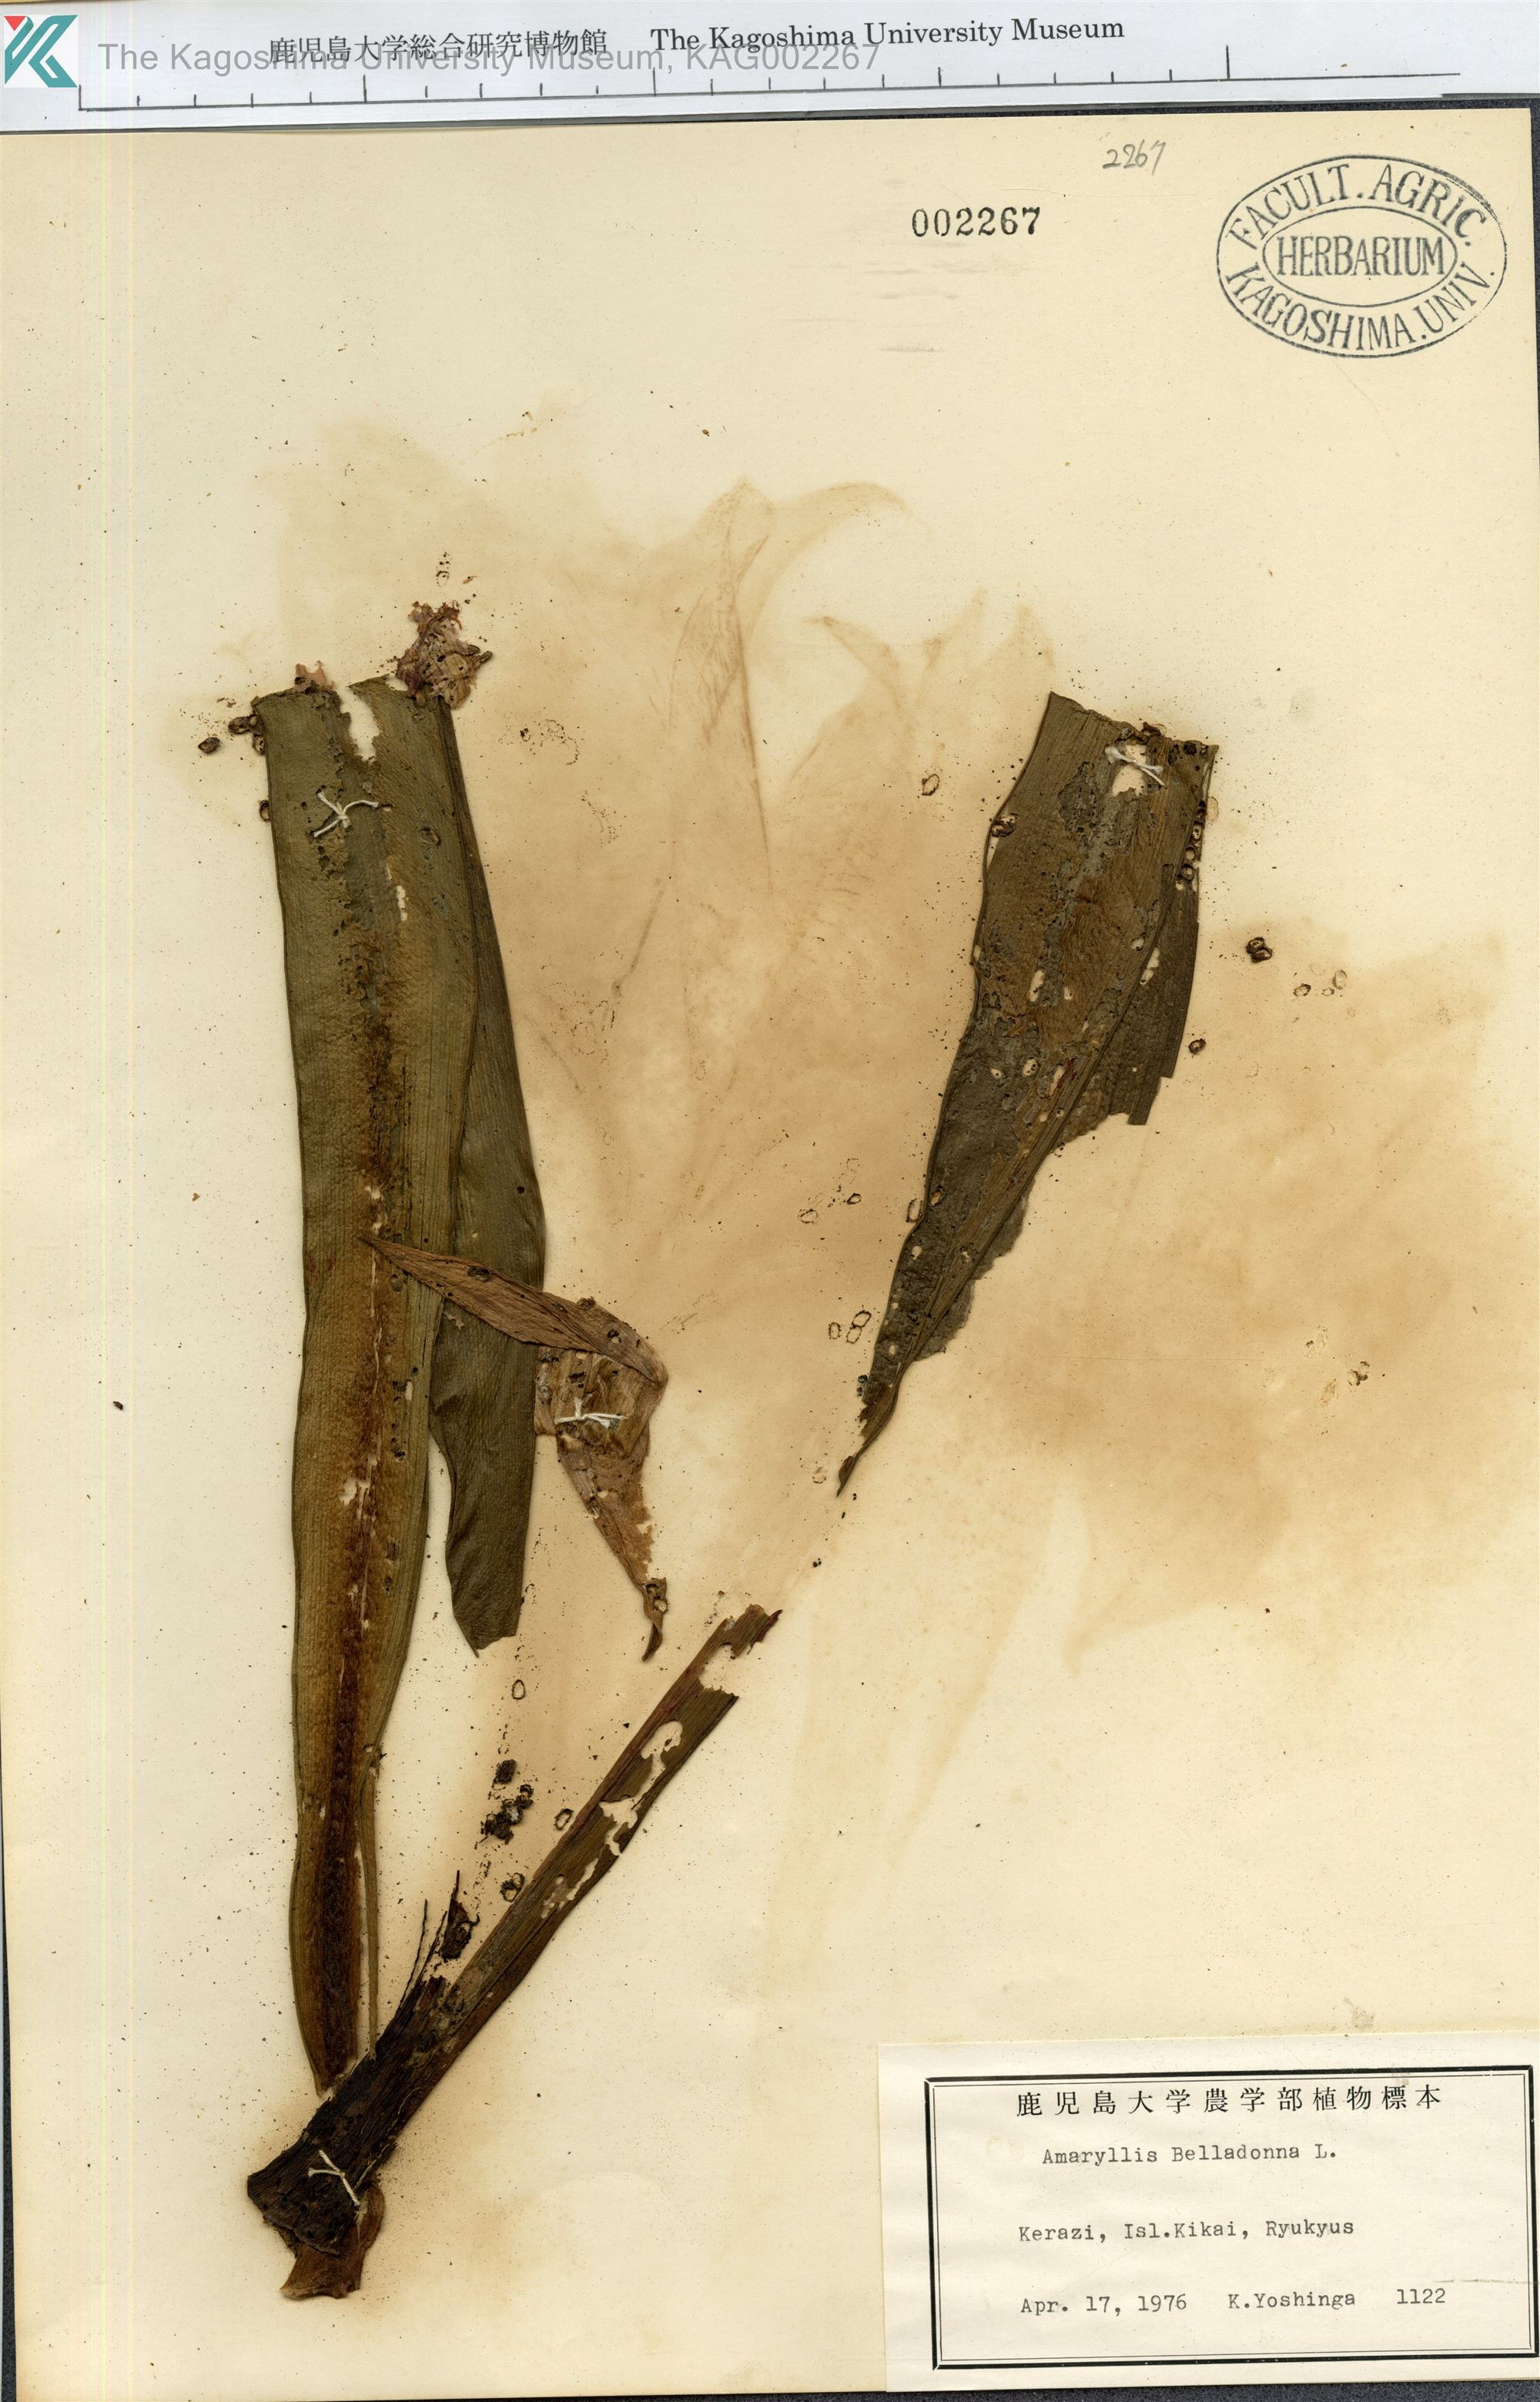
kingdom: Plantae
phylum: Tracheophyta
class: Liliopsida
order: Asparagales
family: Amaryllidaceae
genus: Amaryllis
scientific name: Amaryllis belladonna
